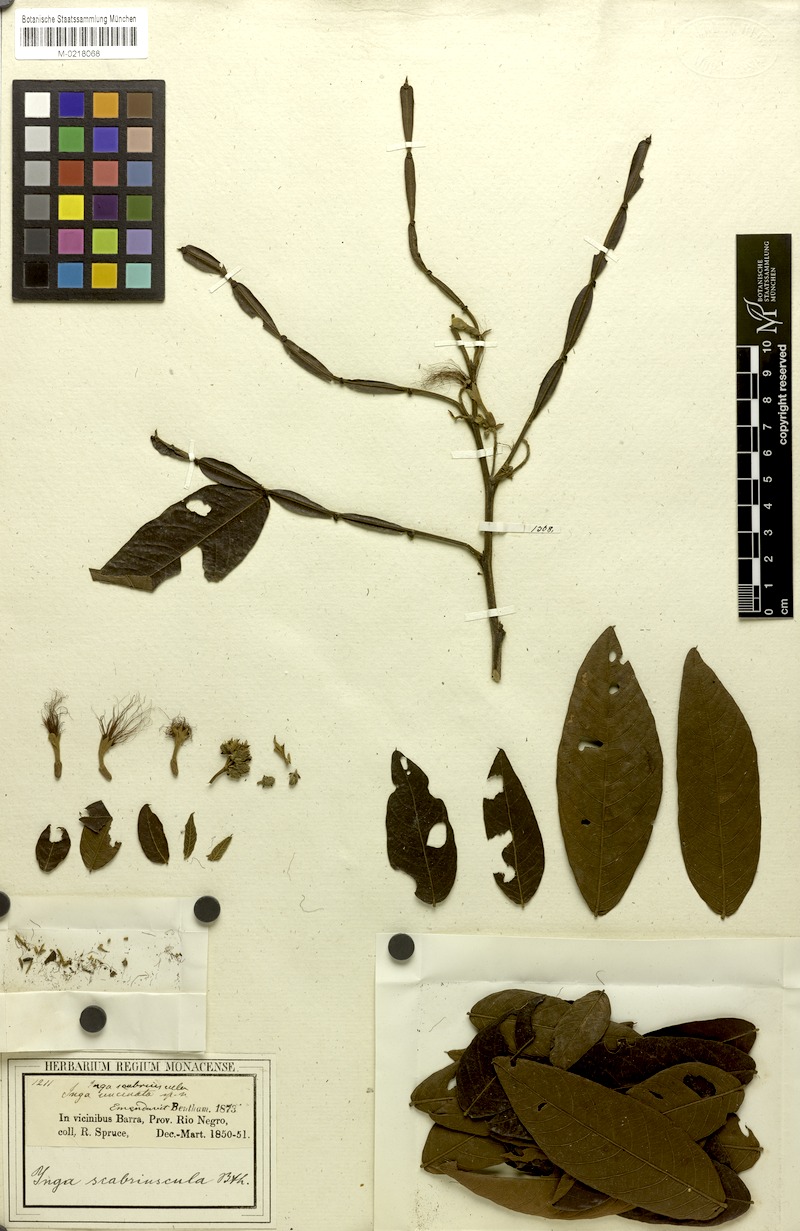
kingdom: Plantae
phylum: Tracheophyta
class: Magnoliopsida
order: Fabales
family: Fabaceae
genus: Inga
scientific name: Inga edulis
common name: Ice cream bean
